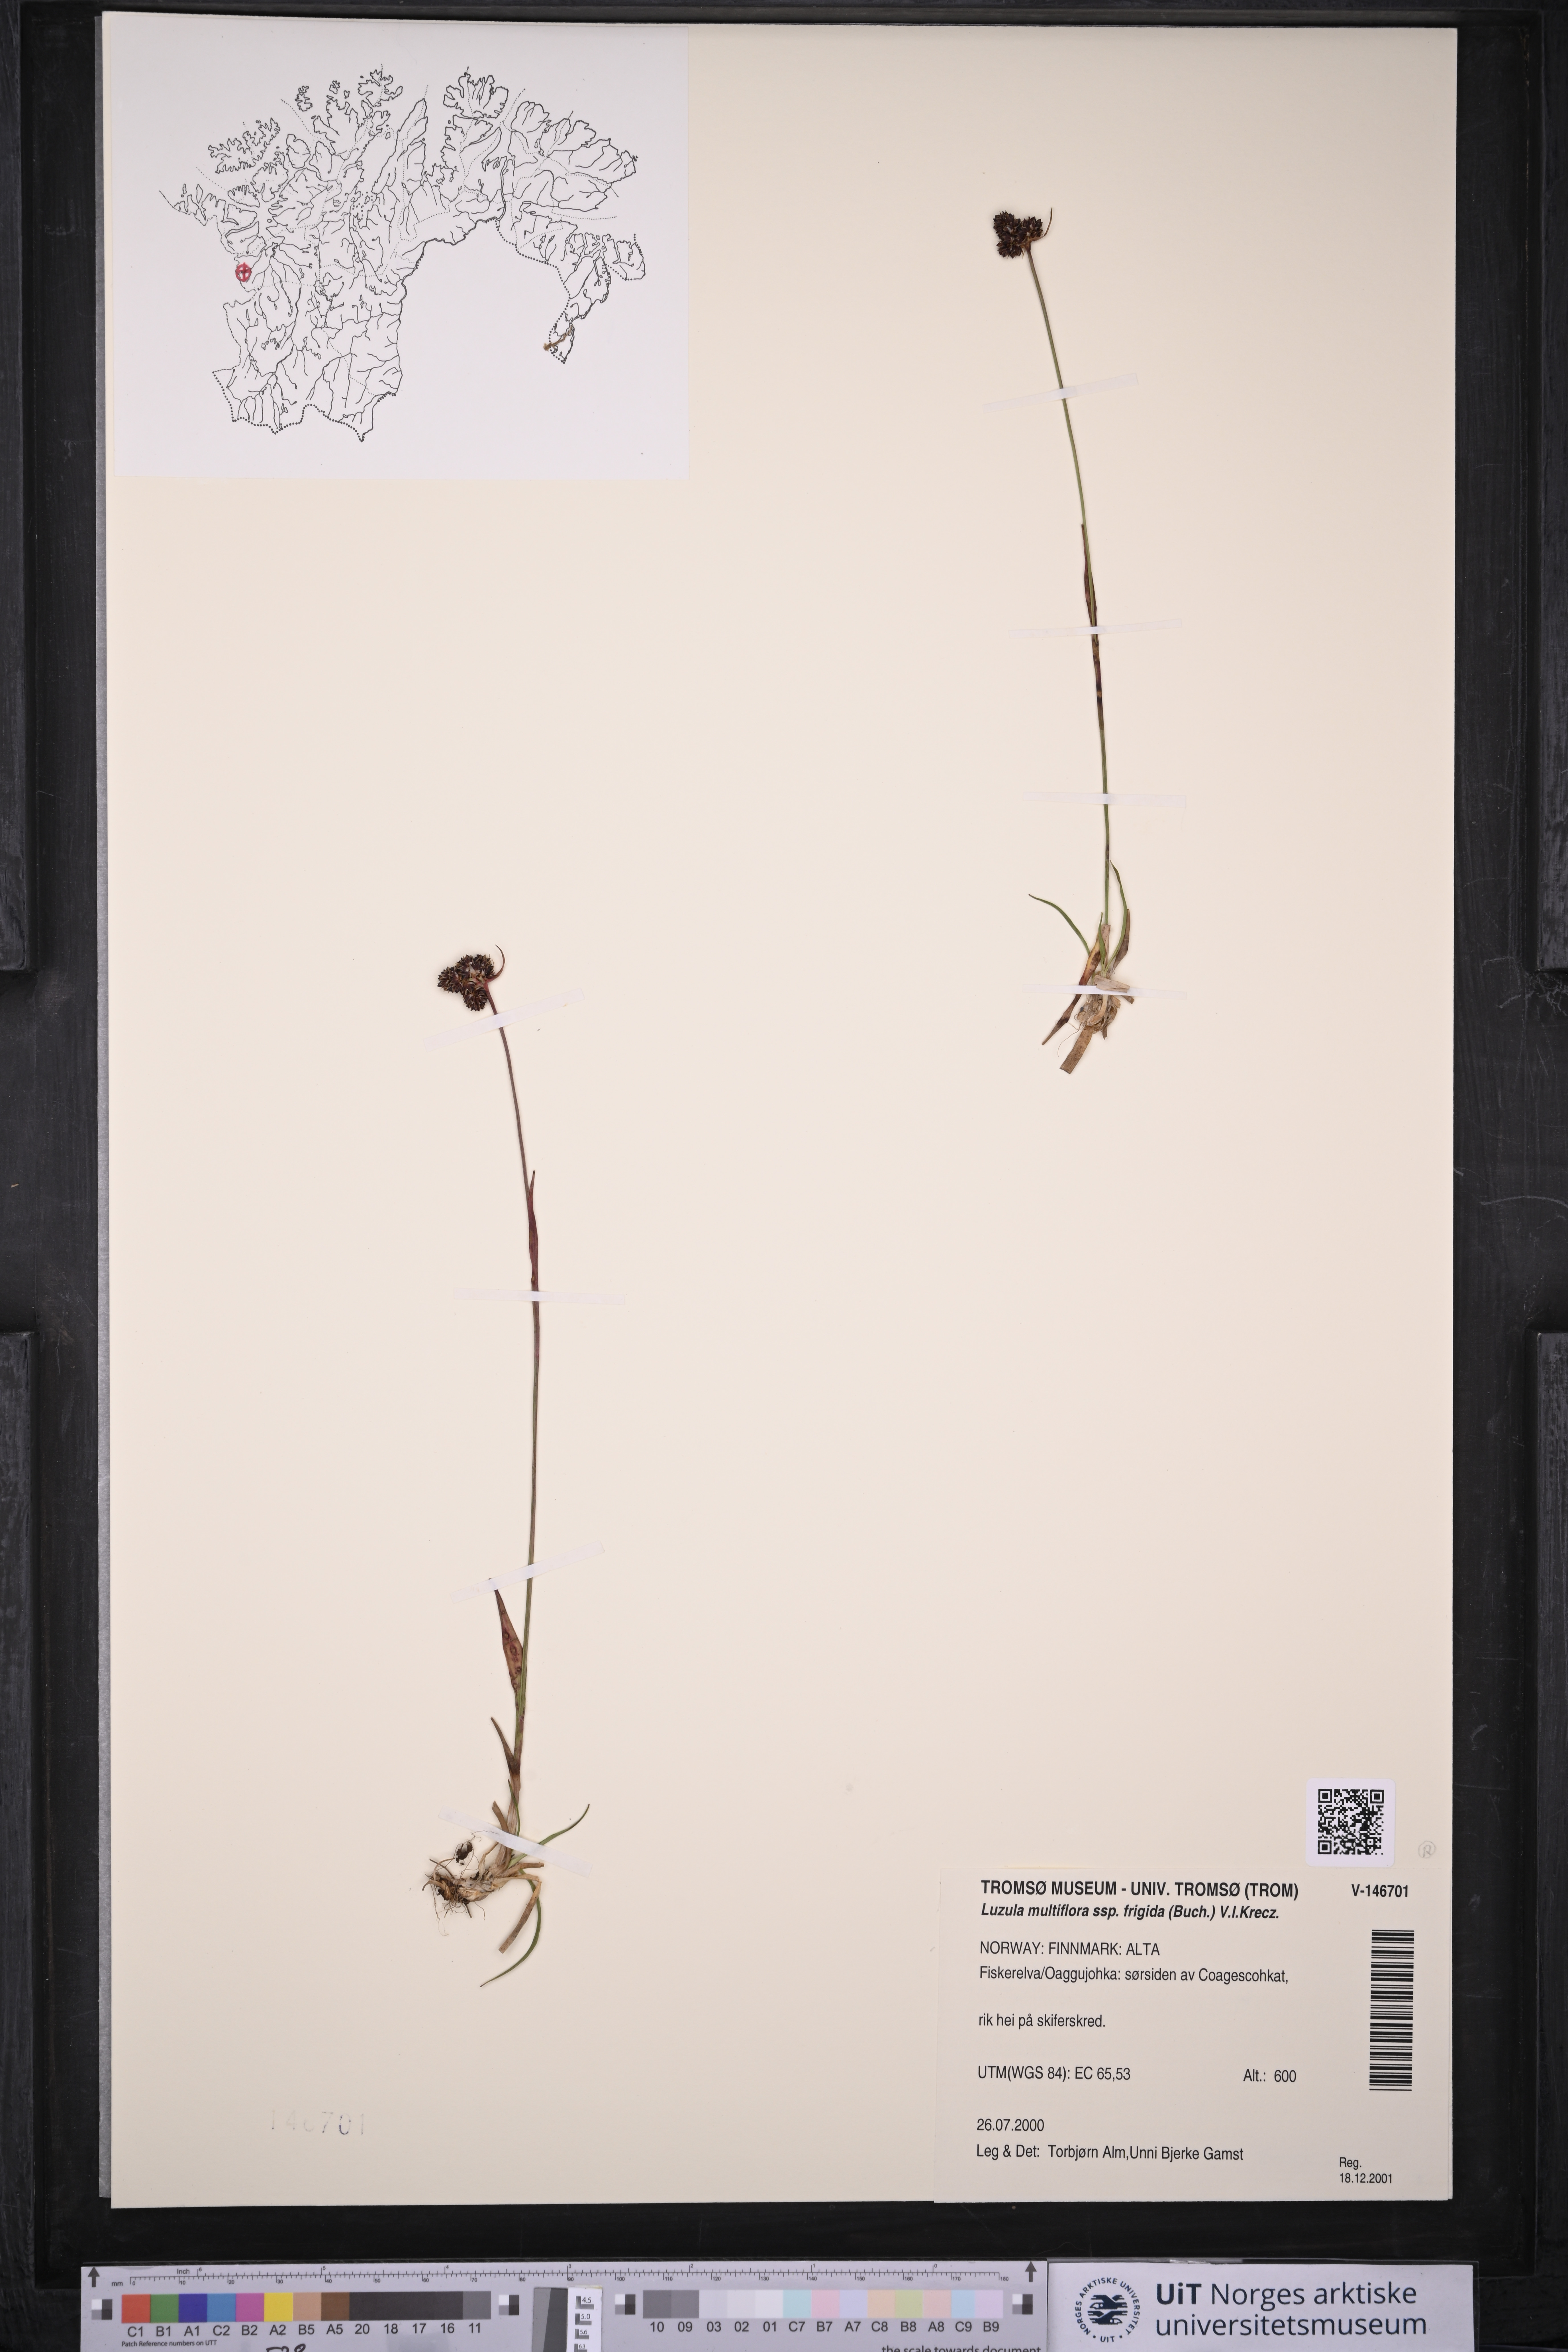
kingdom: Plantae
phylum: Tracheophyta
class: Liliopsida
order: Poales
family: Juncaceae
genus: Luzula
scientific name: Luzula multiflora
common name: Heath wood-rush
